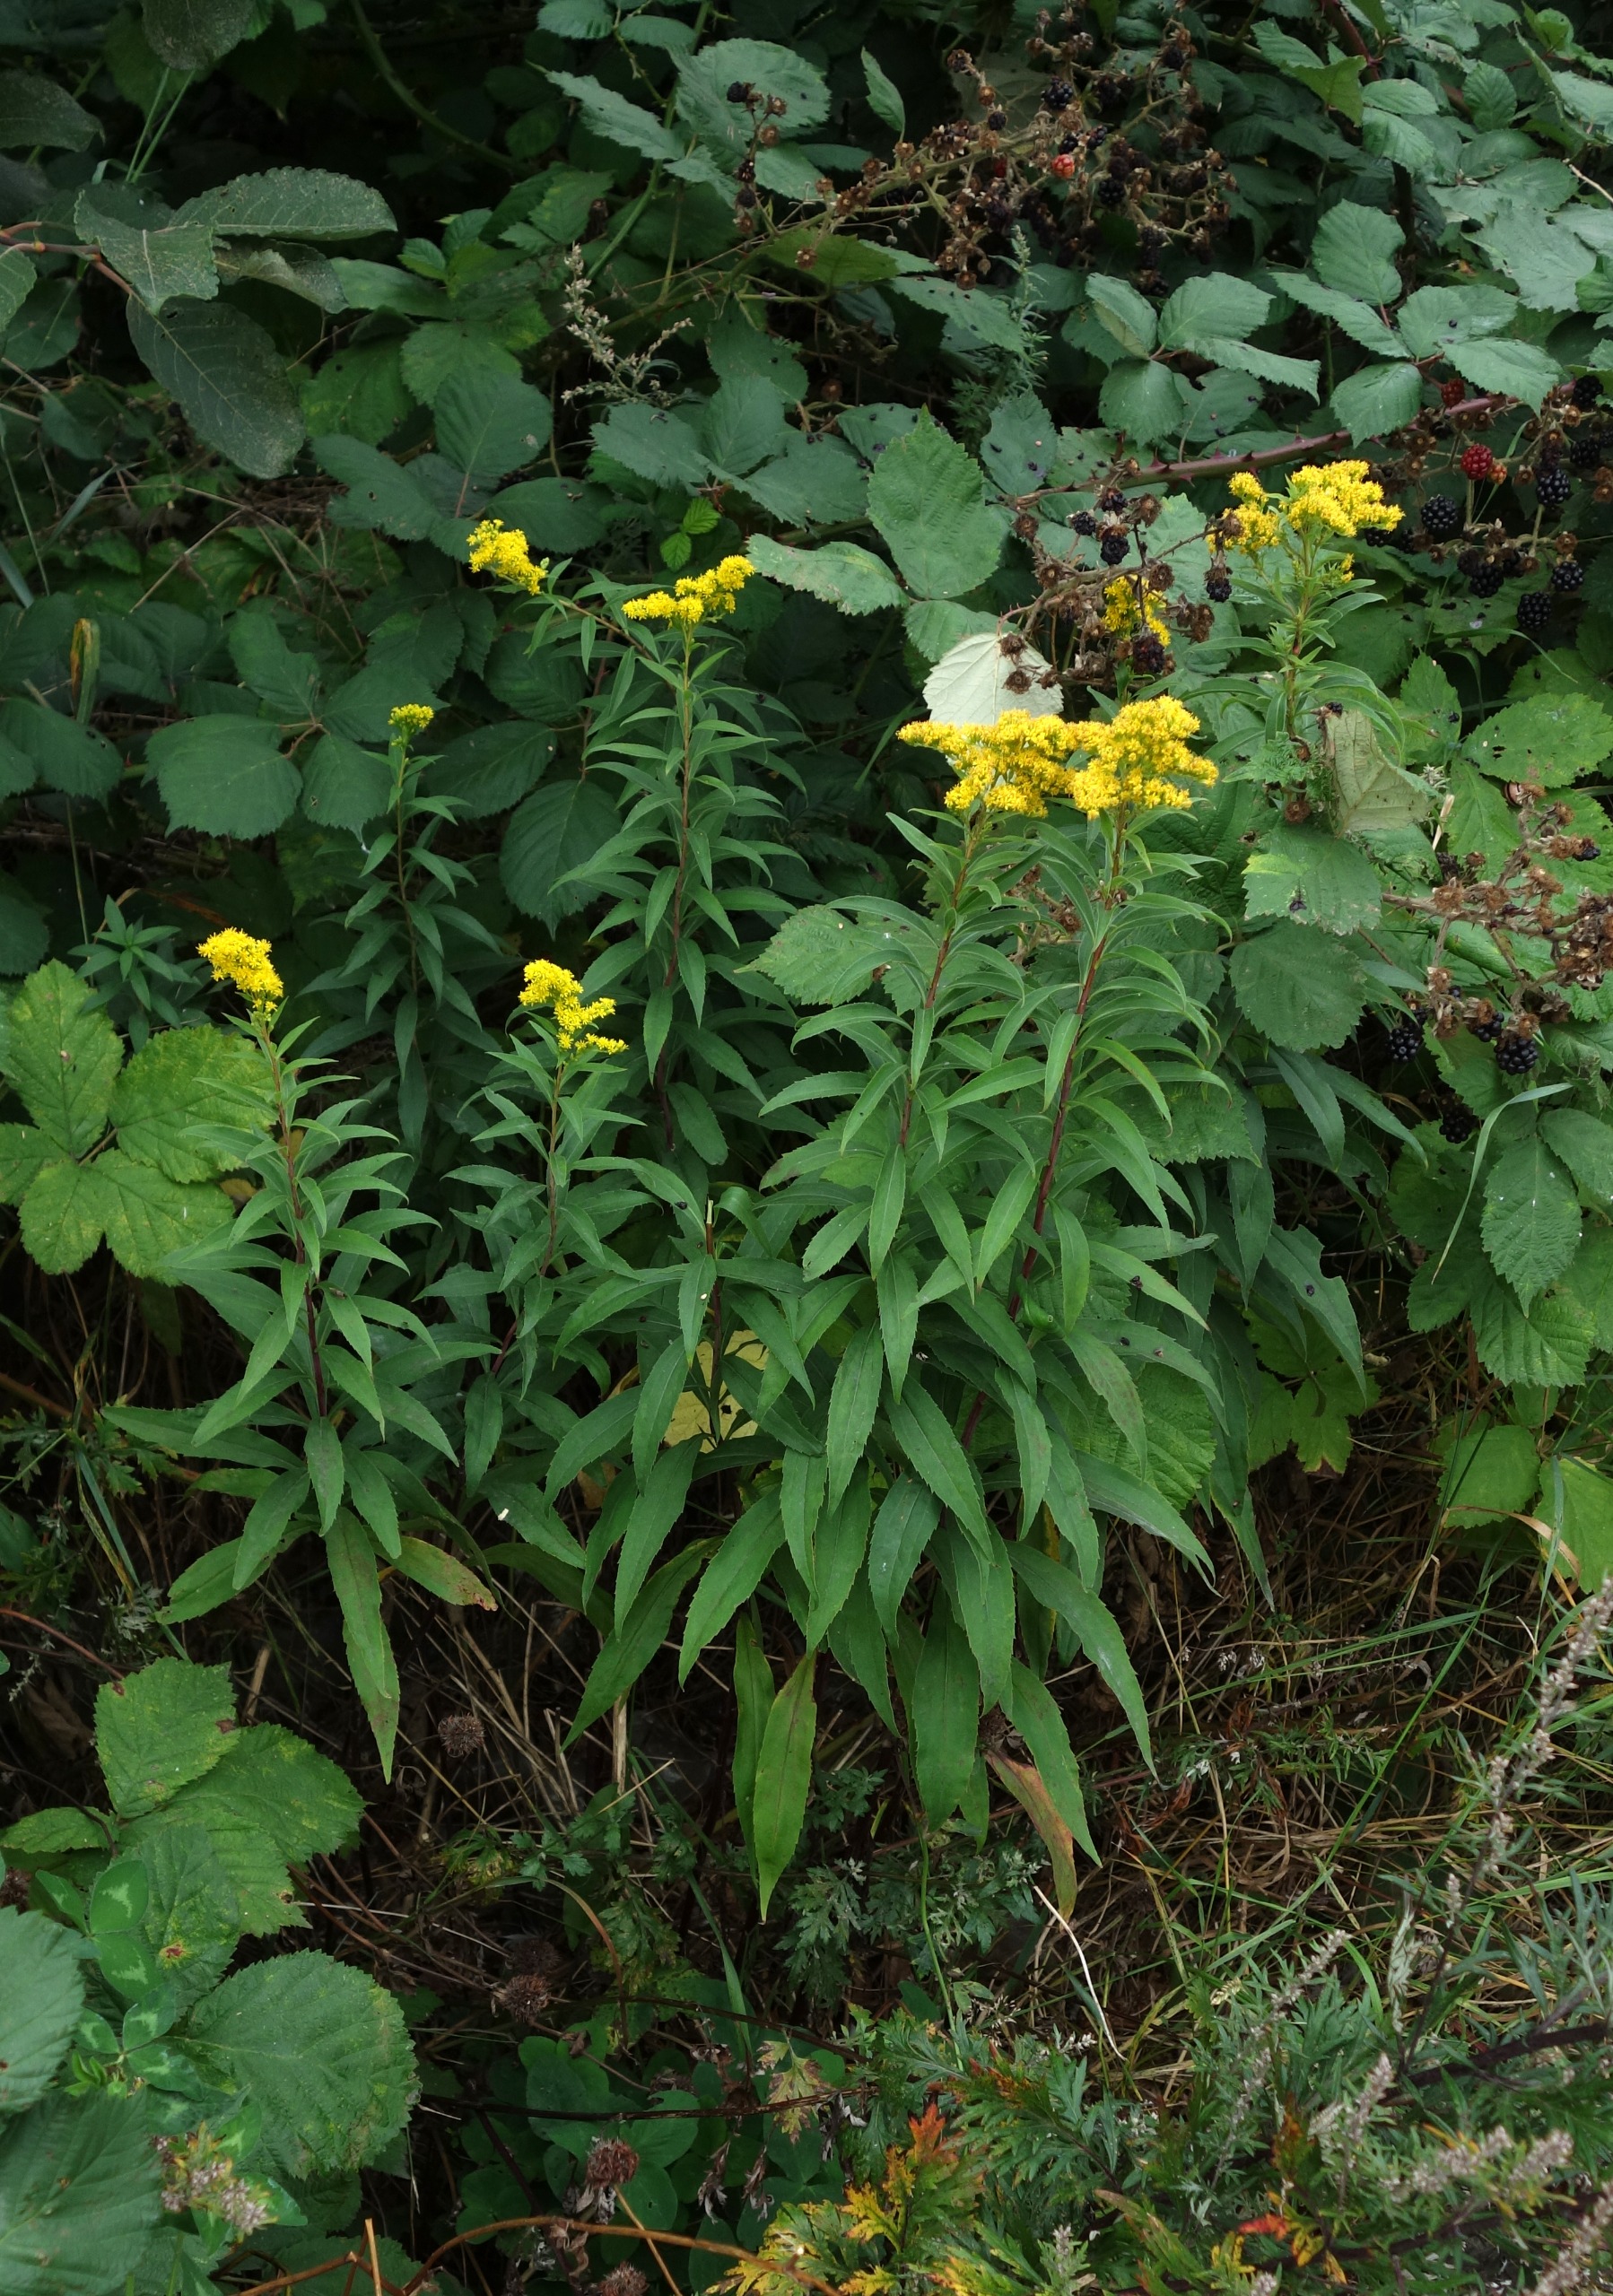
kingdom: Plantae
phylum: Tracheophyta
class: Magnoliopsida
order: Asterales
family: Asteraceae
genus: Solidago
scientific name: Solidago gigantea
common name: Sildig gyldenris
